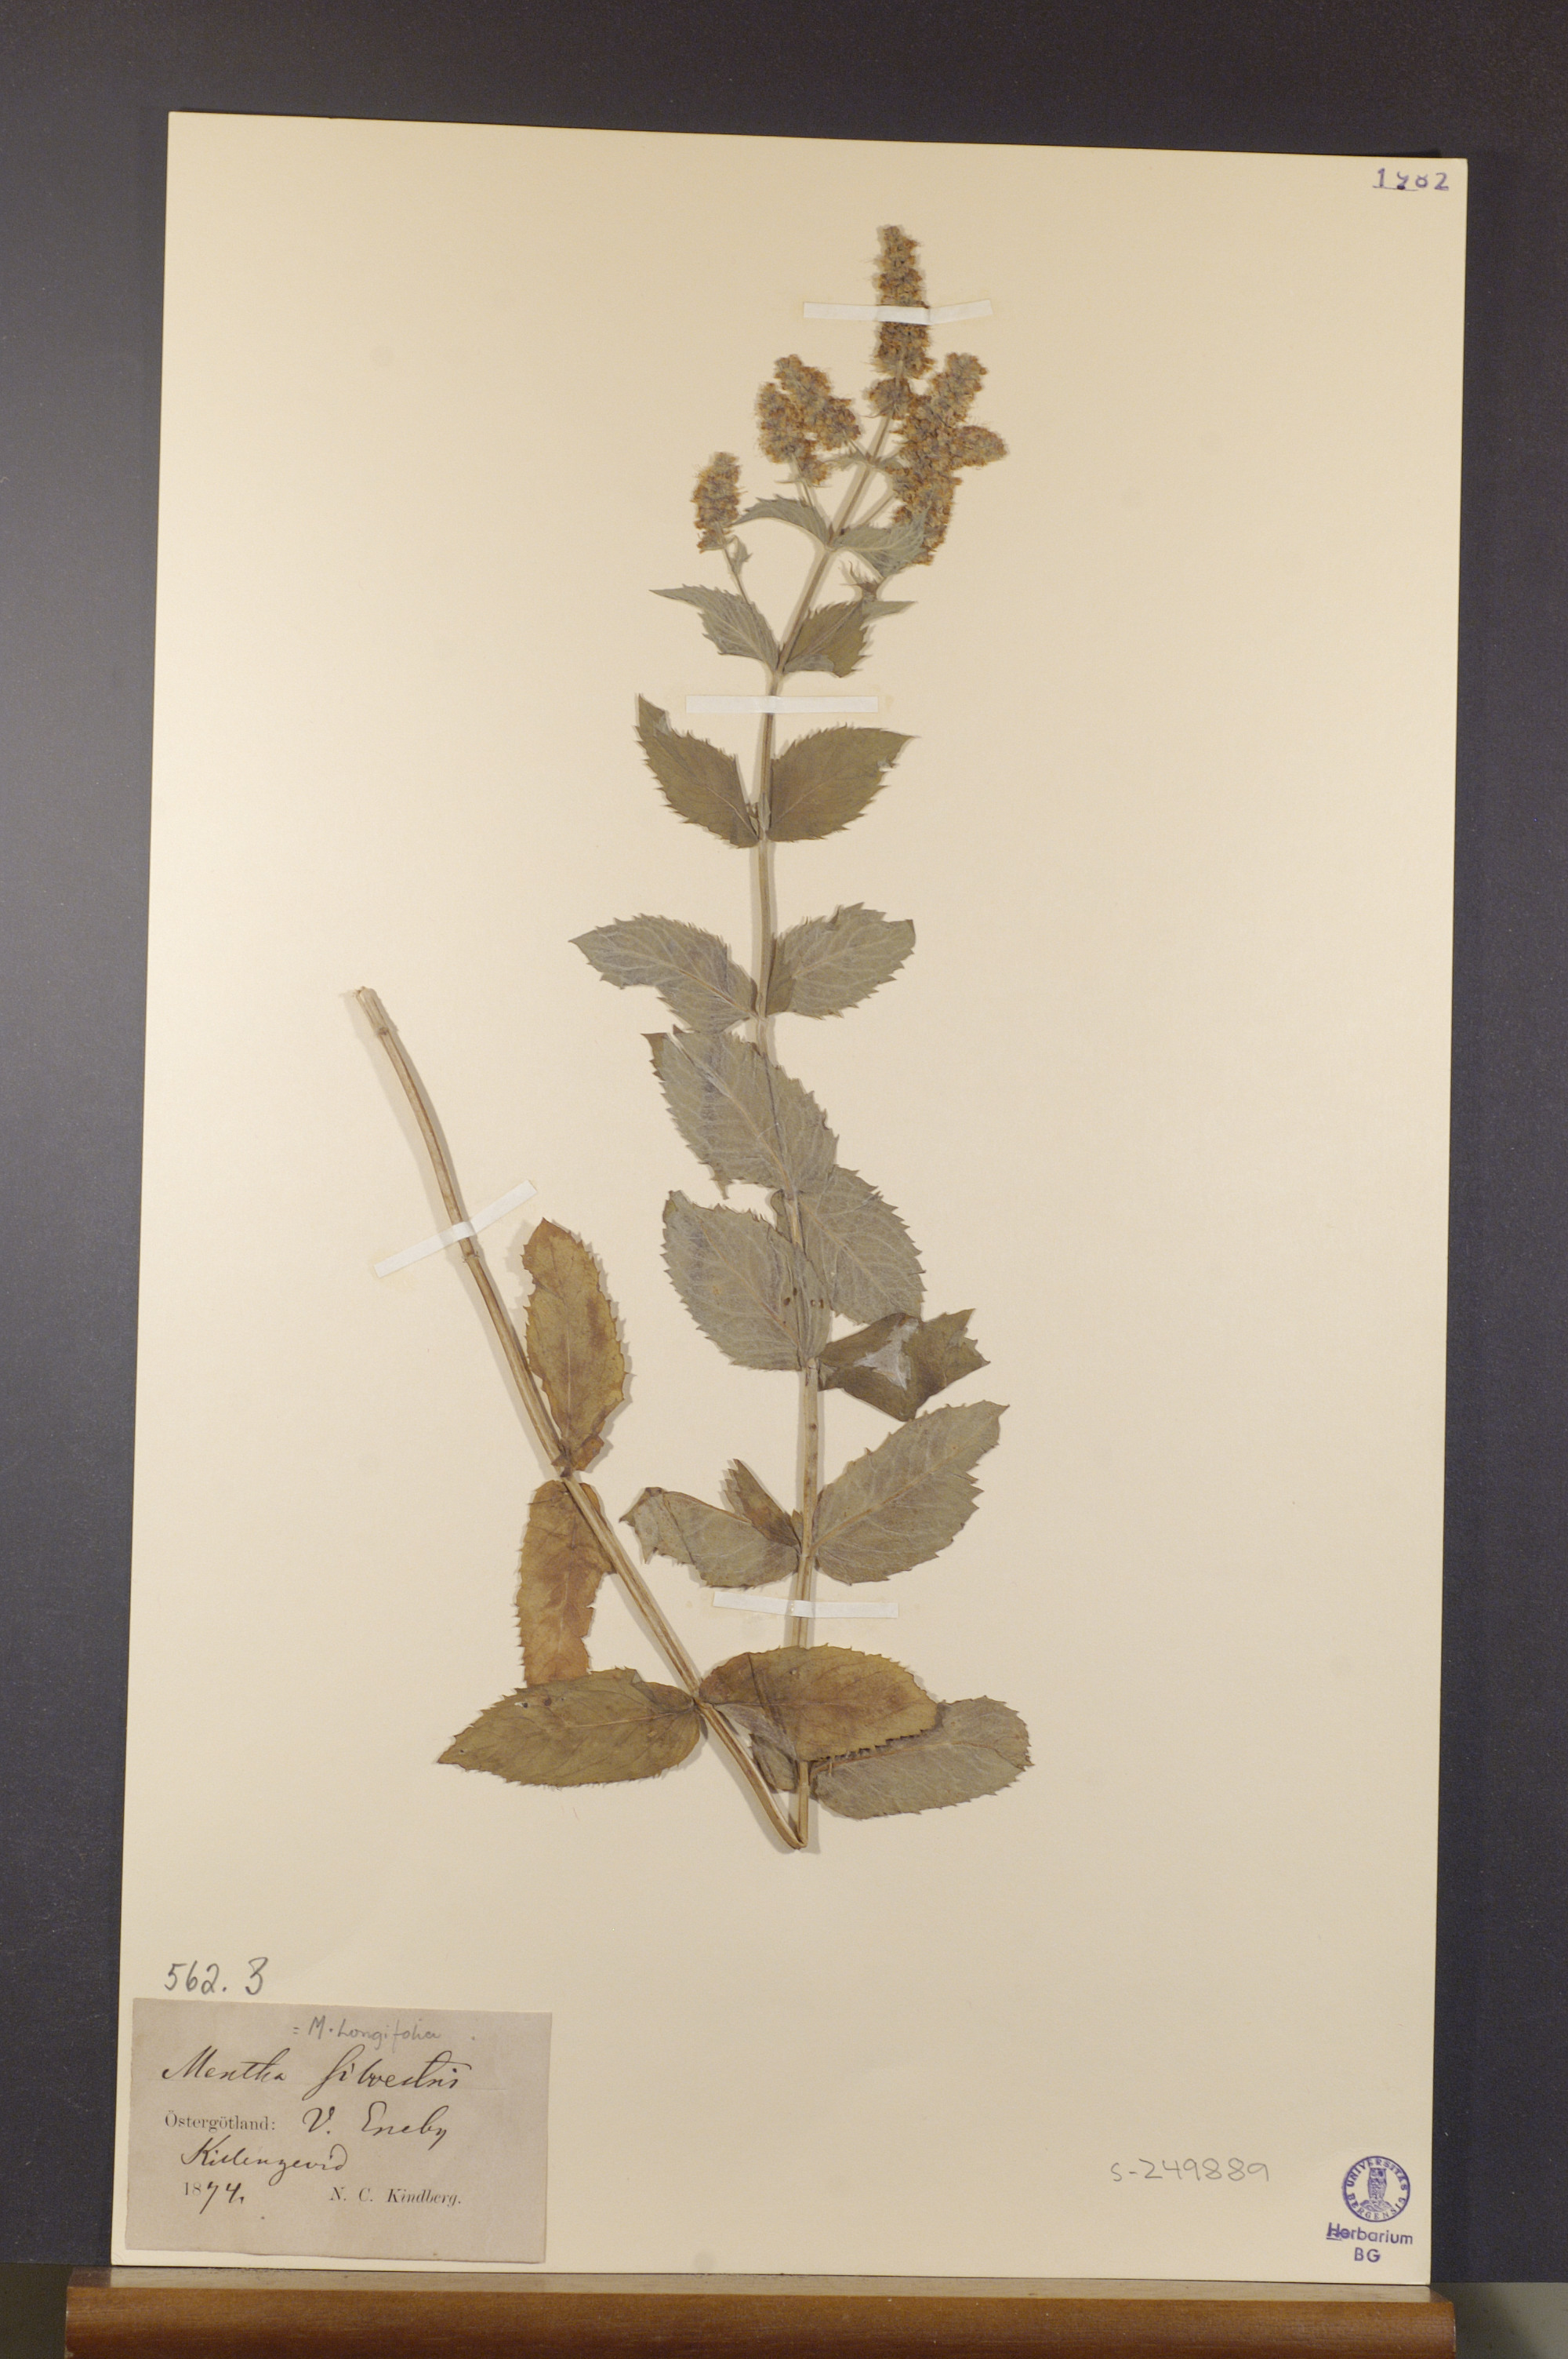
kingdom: Plantae
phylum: Tracheophyta
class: Magnoliopsida
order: Lamiales
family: Lamiaceae
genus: Mentha
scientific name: Mentha longifolia
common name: Horse mint
